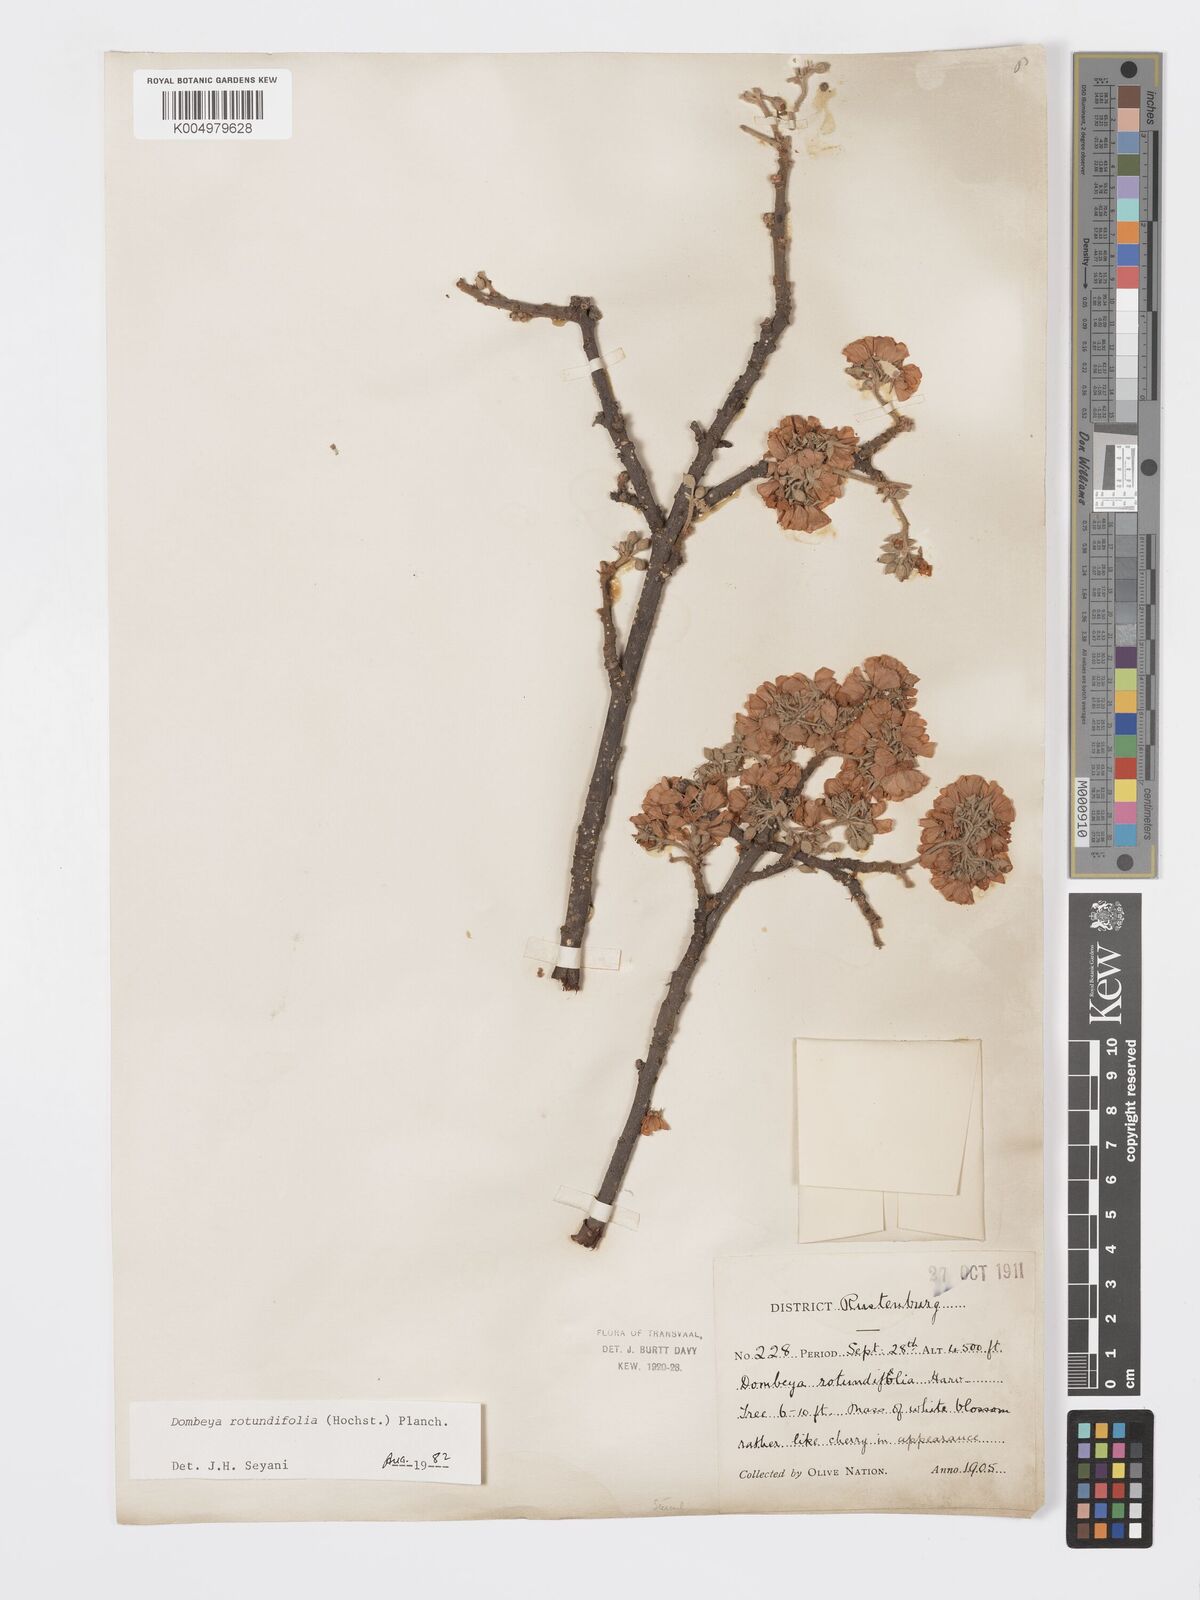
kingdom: Plantae
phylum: Tracheophyta
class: Magnoliopsida
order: Malvales
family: Malvaceae
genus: Dombeya
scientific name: Dombeya rotundifolia
